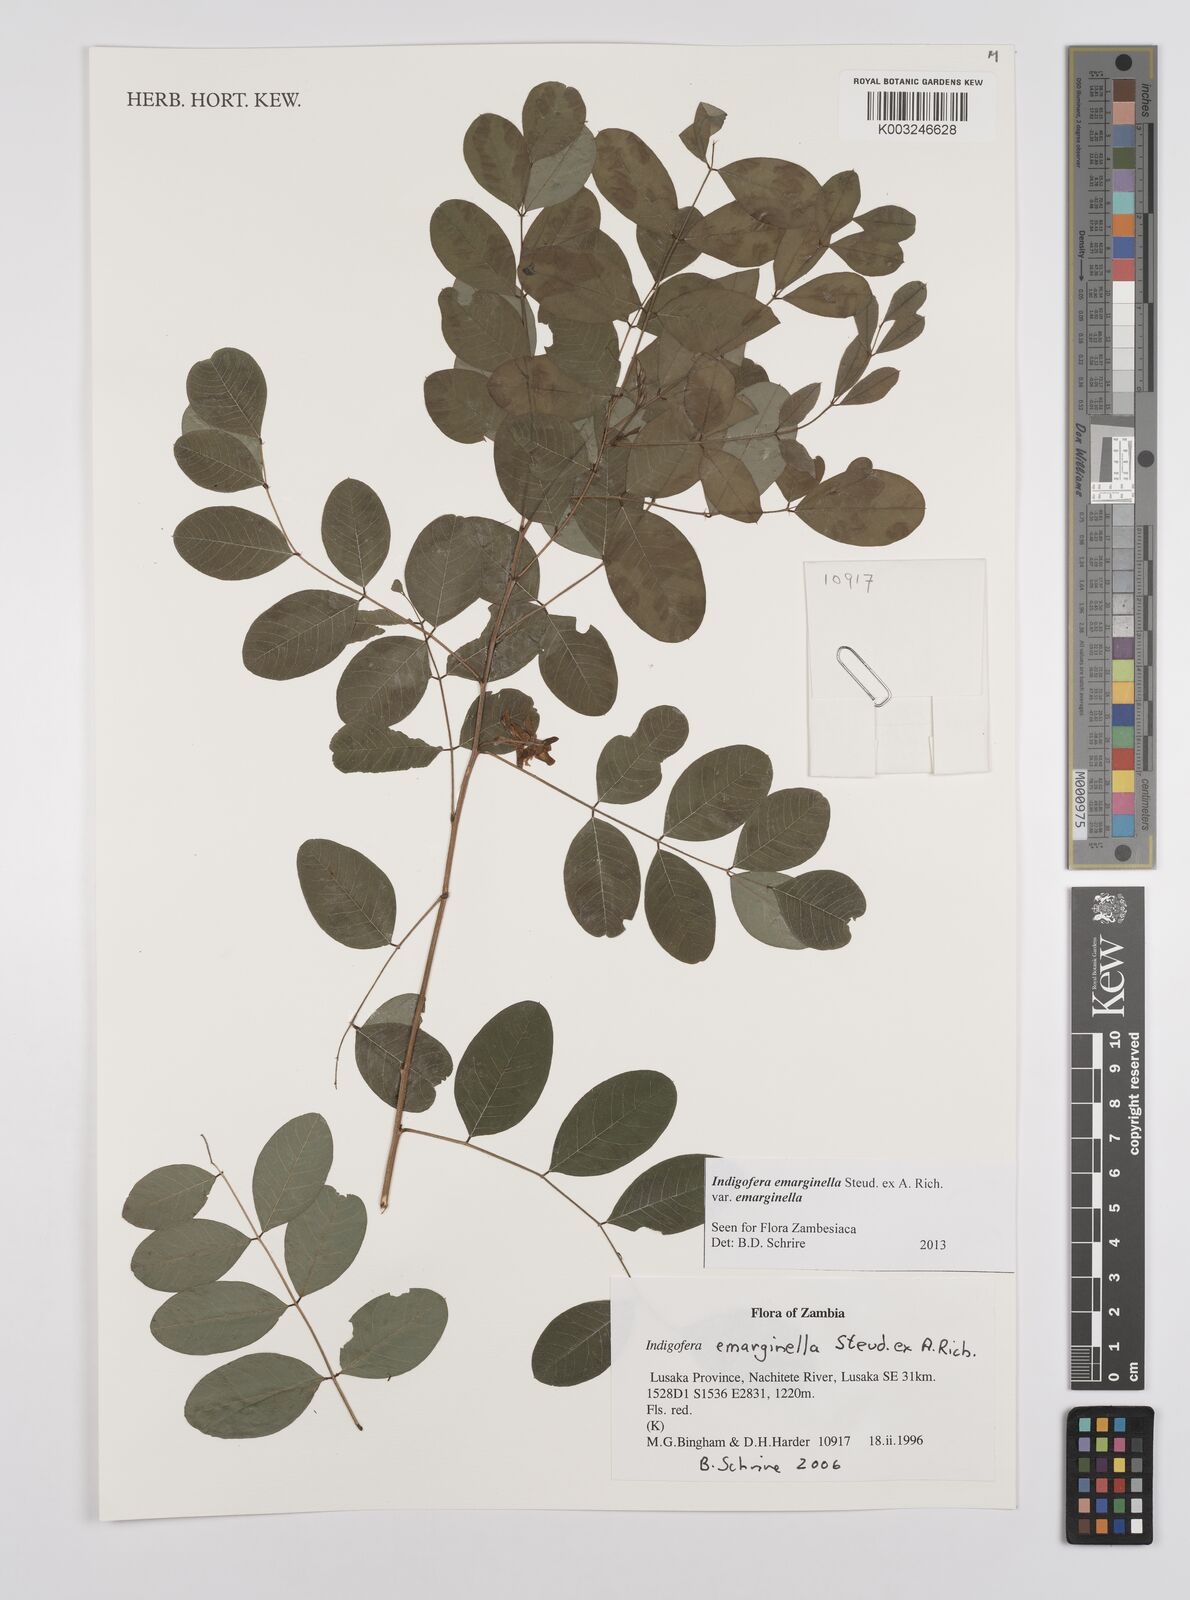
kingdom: Plantae
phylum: Tracheophyta
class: Magnoliopsida
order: Fabales
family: Fabaceae
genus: Indigofera
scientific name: Indigofera emarginella
